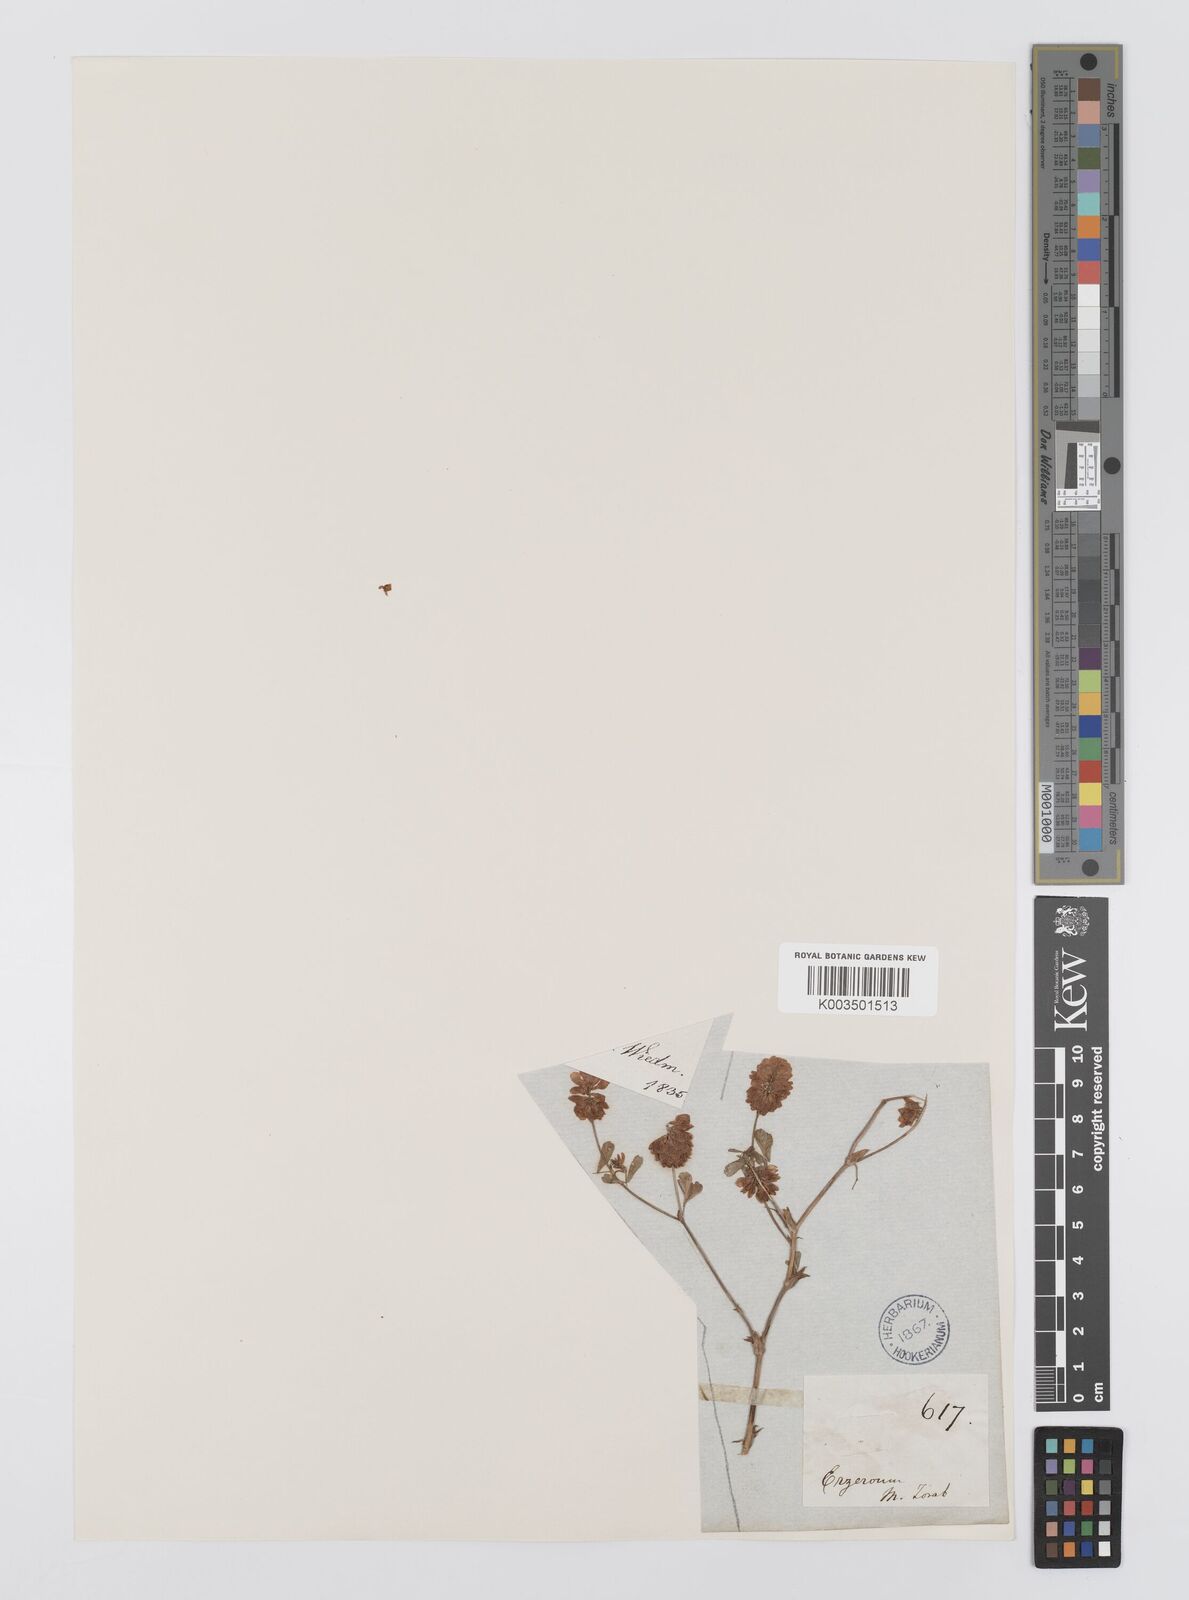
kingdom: Plantae
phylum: Tracheophyta
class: Magnoliopsida
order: Fabales
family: Fabaceae
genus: Trifolium
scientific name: Trifolium campestre
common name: Field clover
